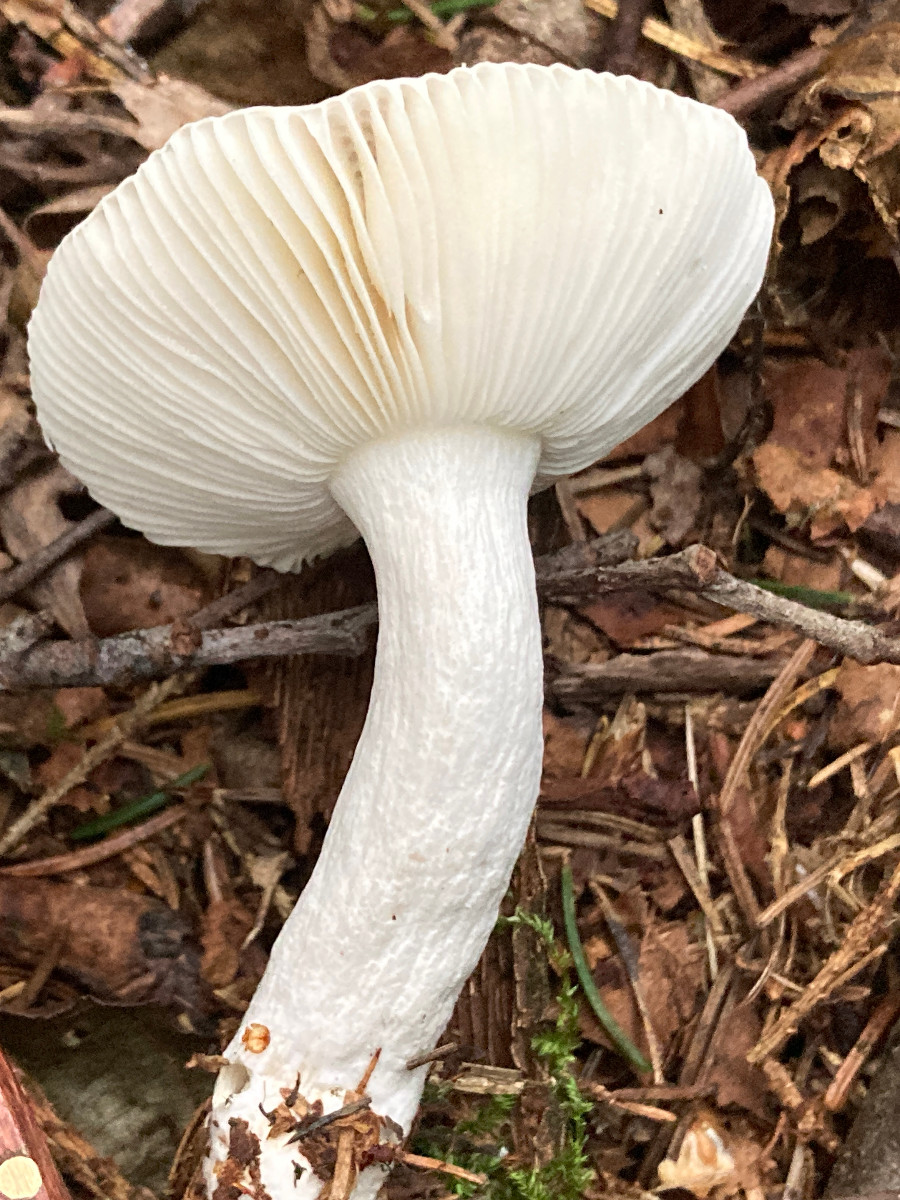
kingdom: Fungi
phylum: Basidiomycota
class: Agaricomycetes
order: Russulales
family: Russulaceae
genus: Russula
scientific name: Russula
